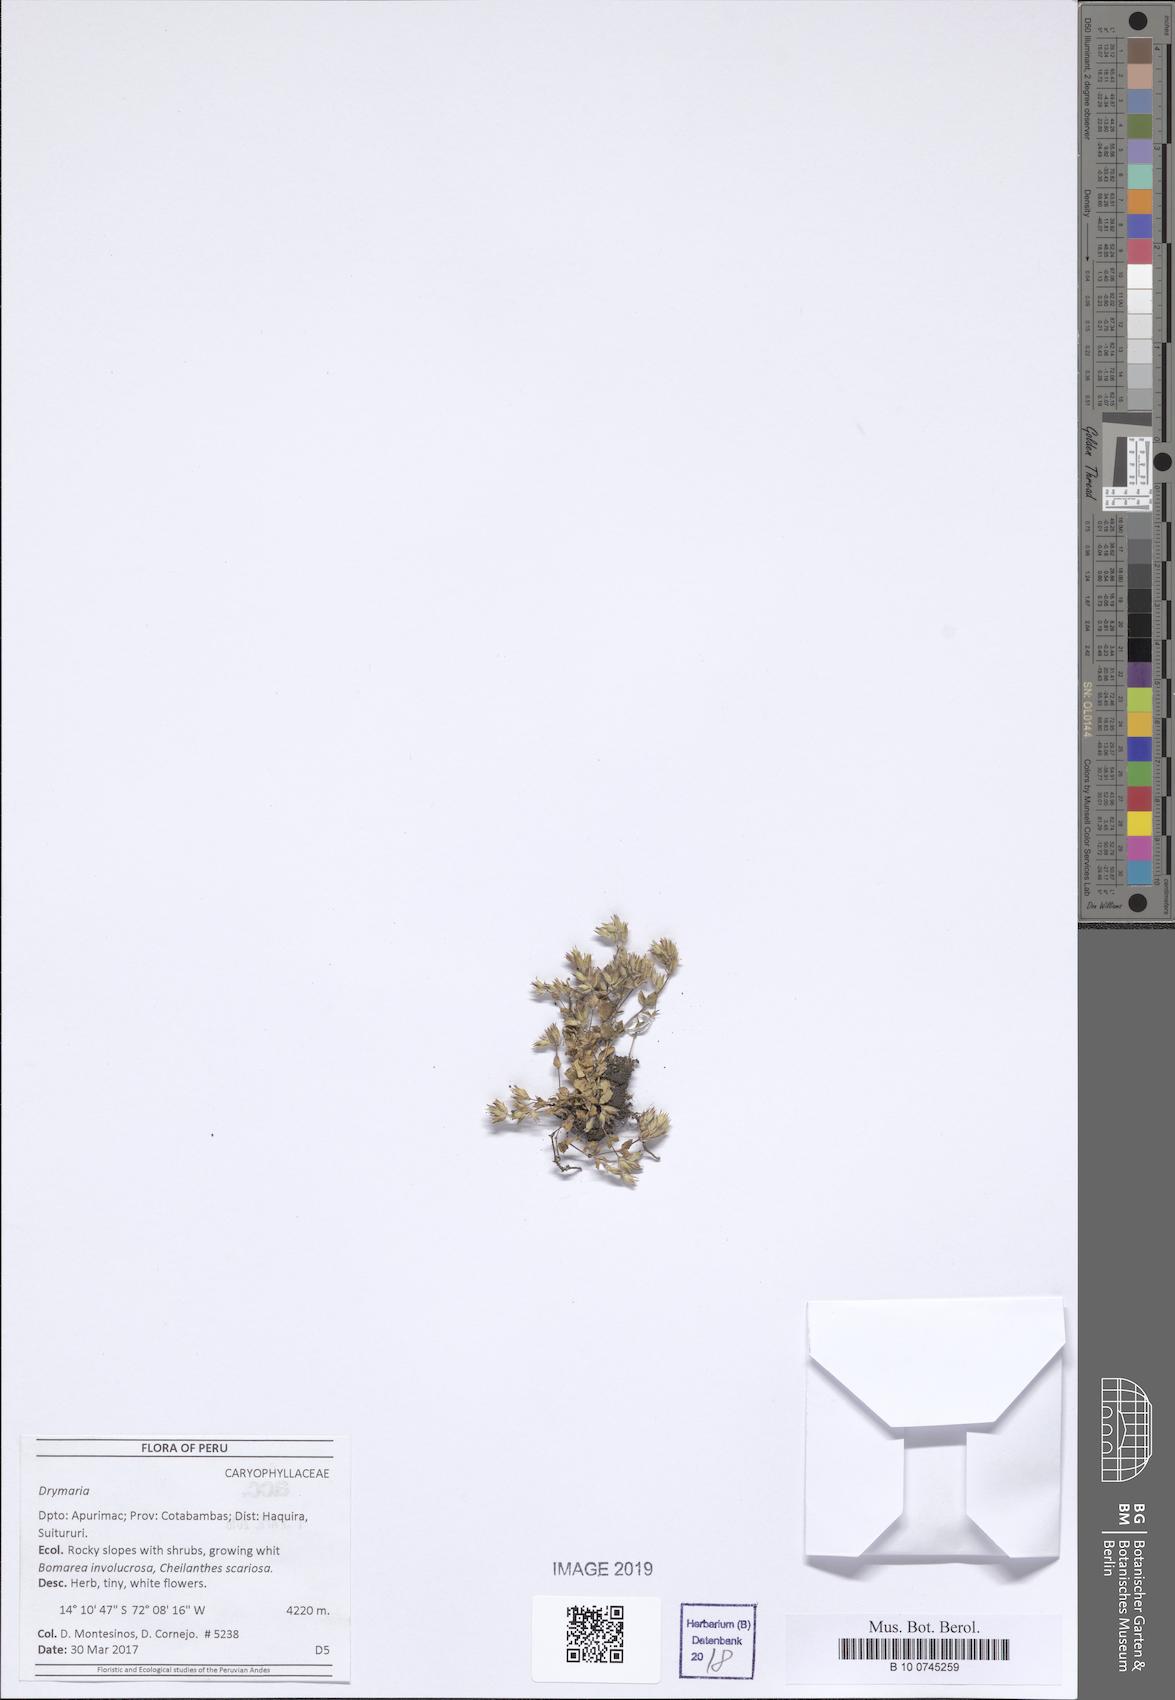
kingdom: Plantae
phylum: Tracheophyta
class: Magnoliopsida
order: Caryophyllales
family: Caryophyllaceae
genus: Drymaria
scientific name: Drymaria
